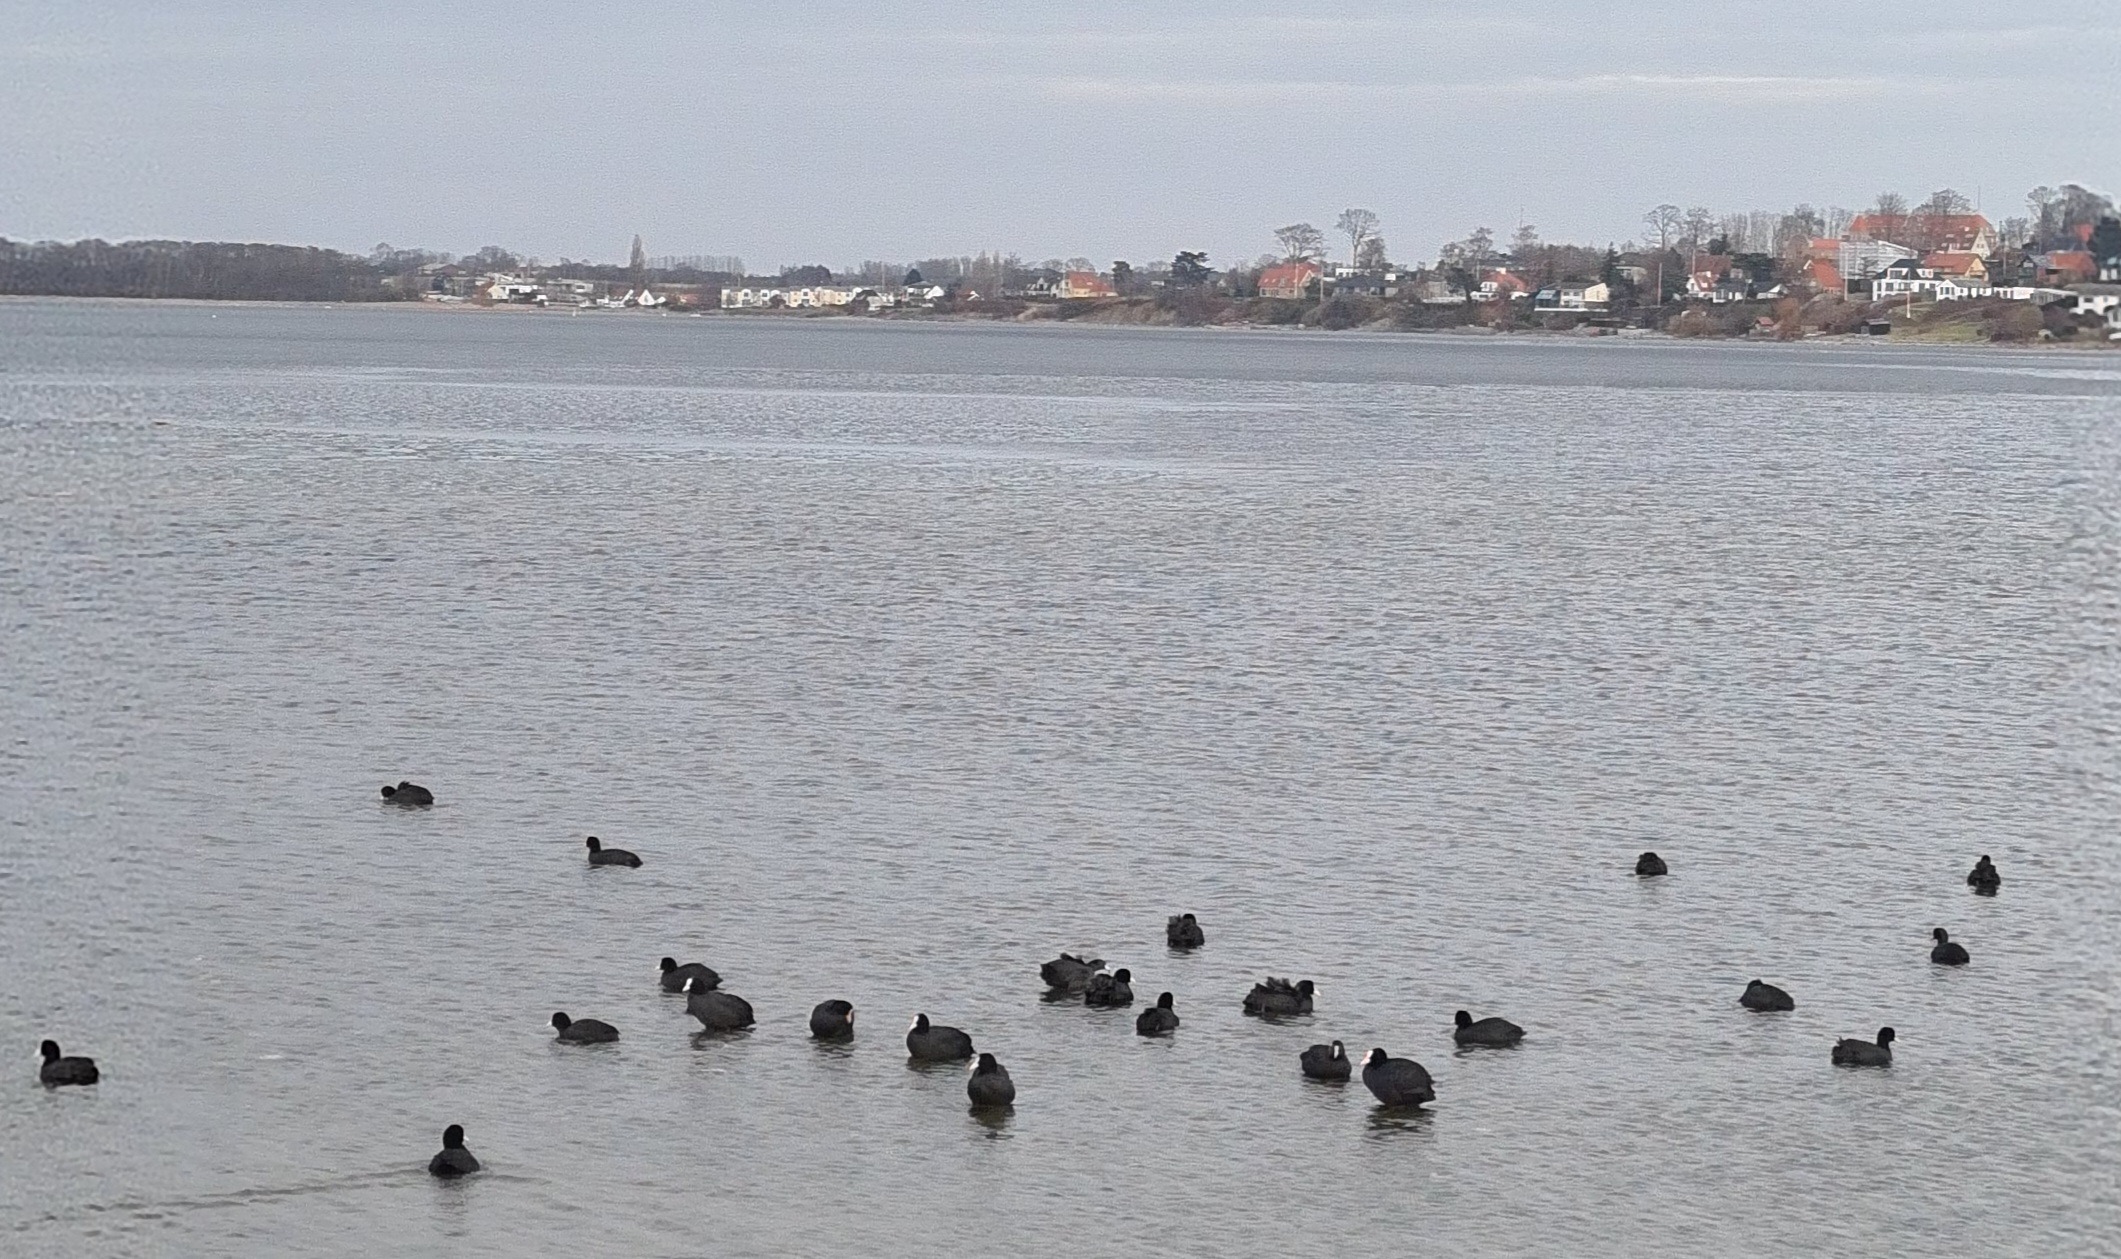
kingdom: Animalia
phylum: Chordata
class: Aves
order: Gruiformes
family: Rallidae
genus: Fulica
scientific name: Fulica atra
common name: Blishøne
